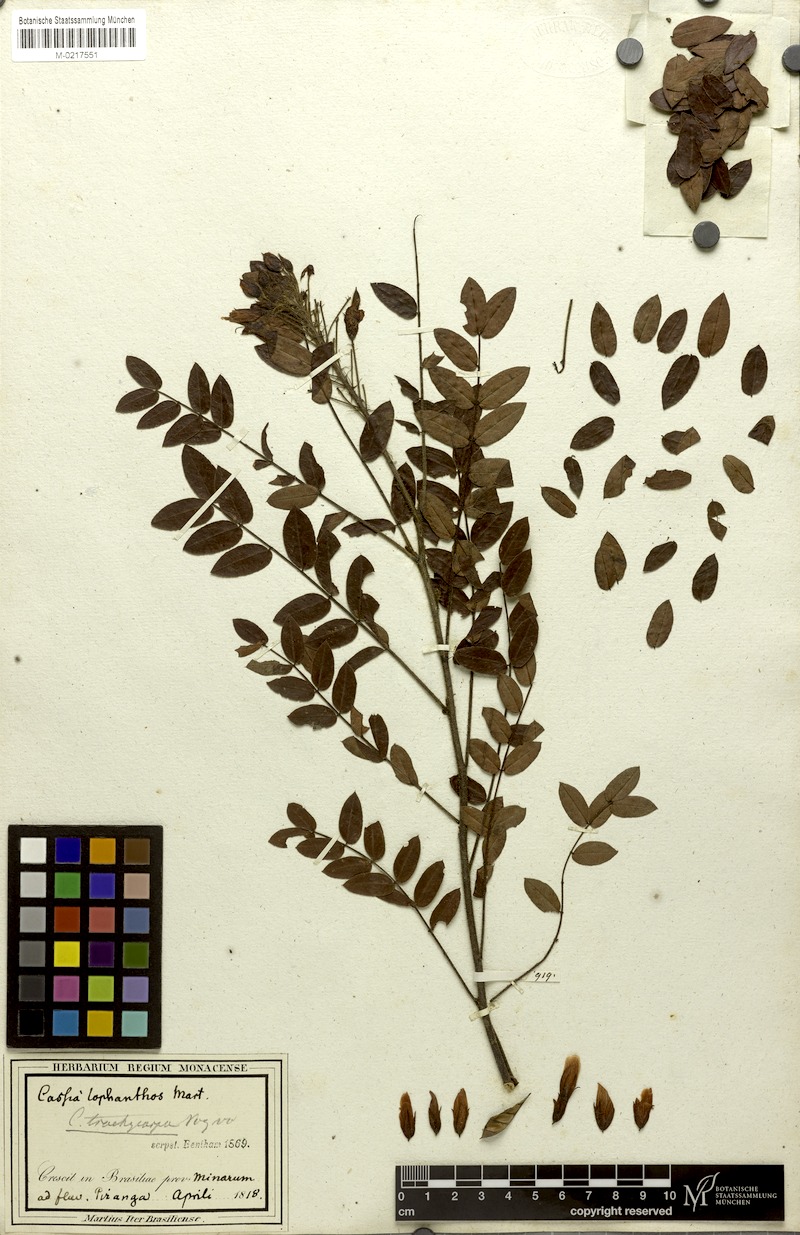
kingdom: Plantae
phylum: Tracheophyta
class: Magnoliopsida
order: Fabales
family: Fabaceae
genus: Chamaecrista
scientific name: Chamaecrista trachycarpa
